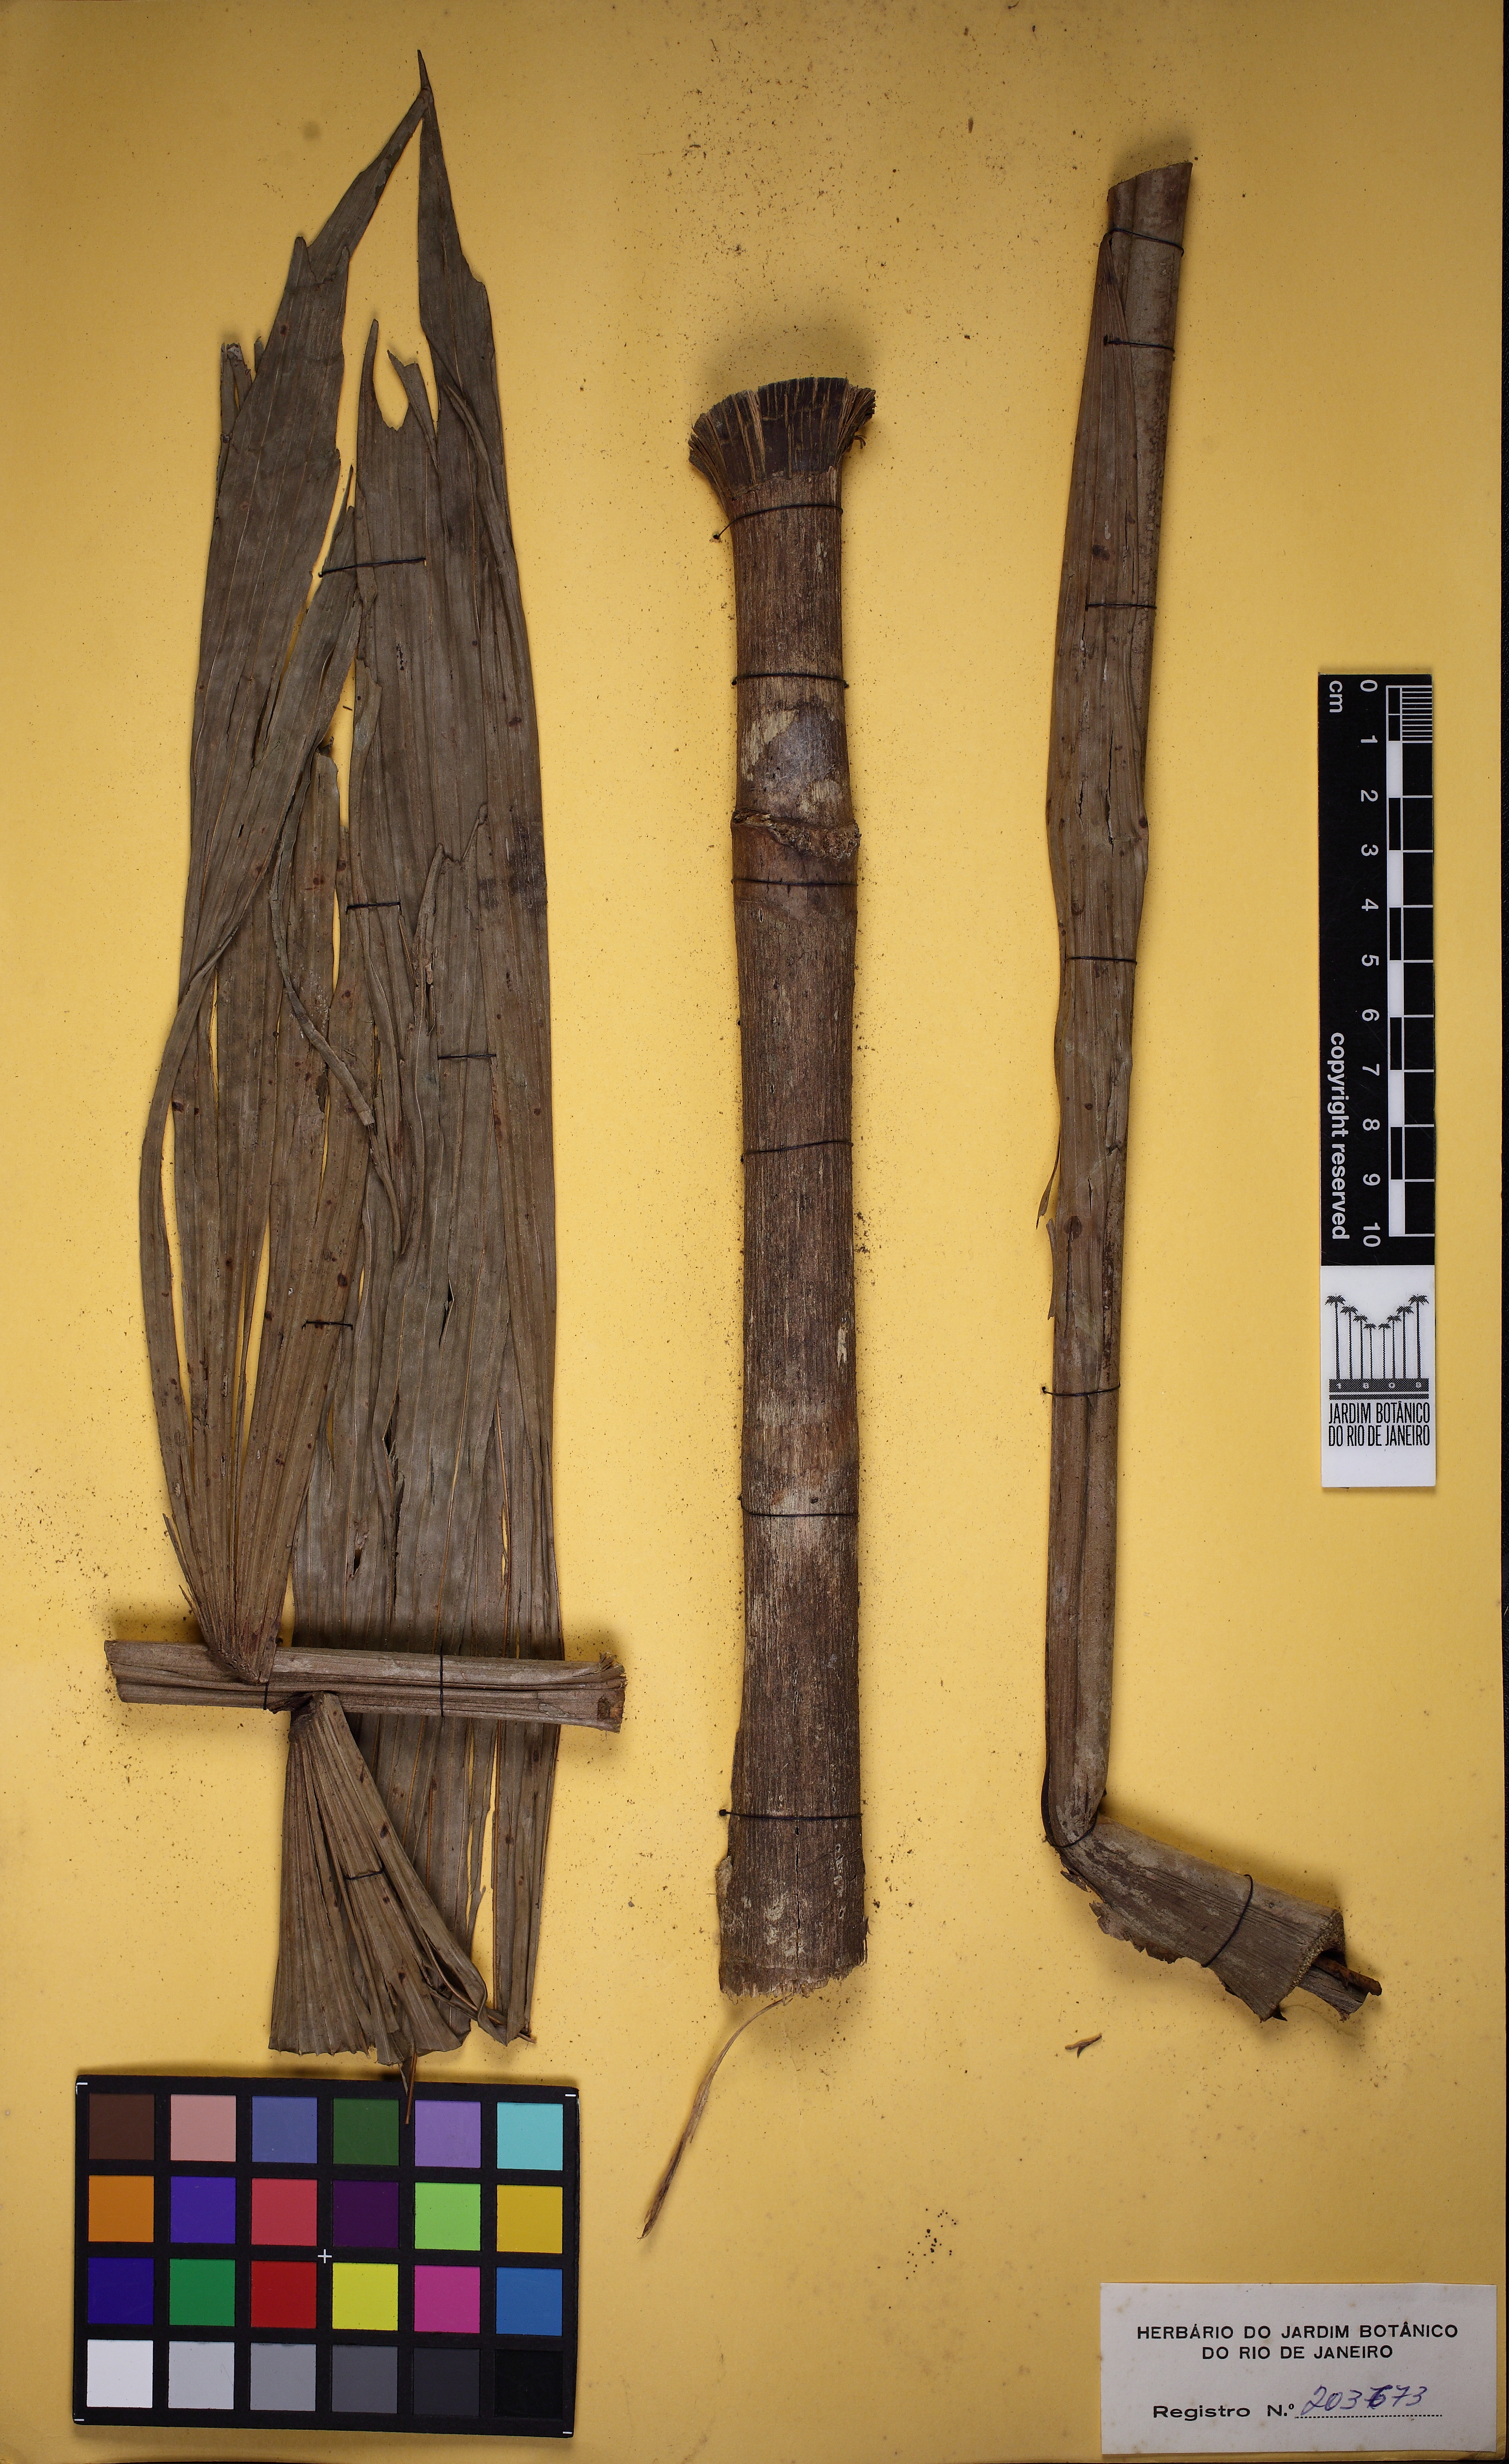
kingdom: Plantae
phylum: Tracheophyta
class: Liliopsida
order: Arecales
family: Arecaceae
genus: Socratea
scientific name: Socratea exorrhiza
